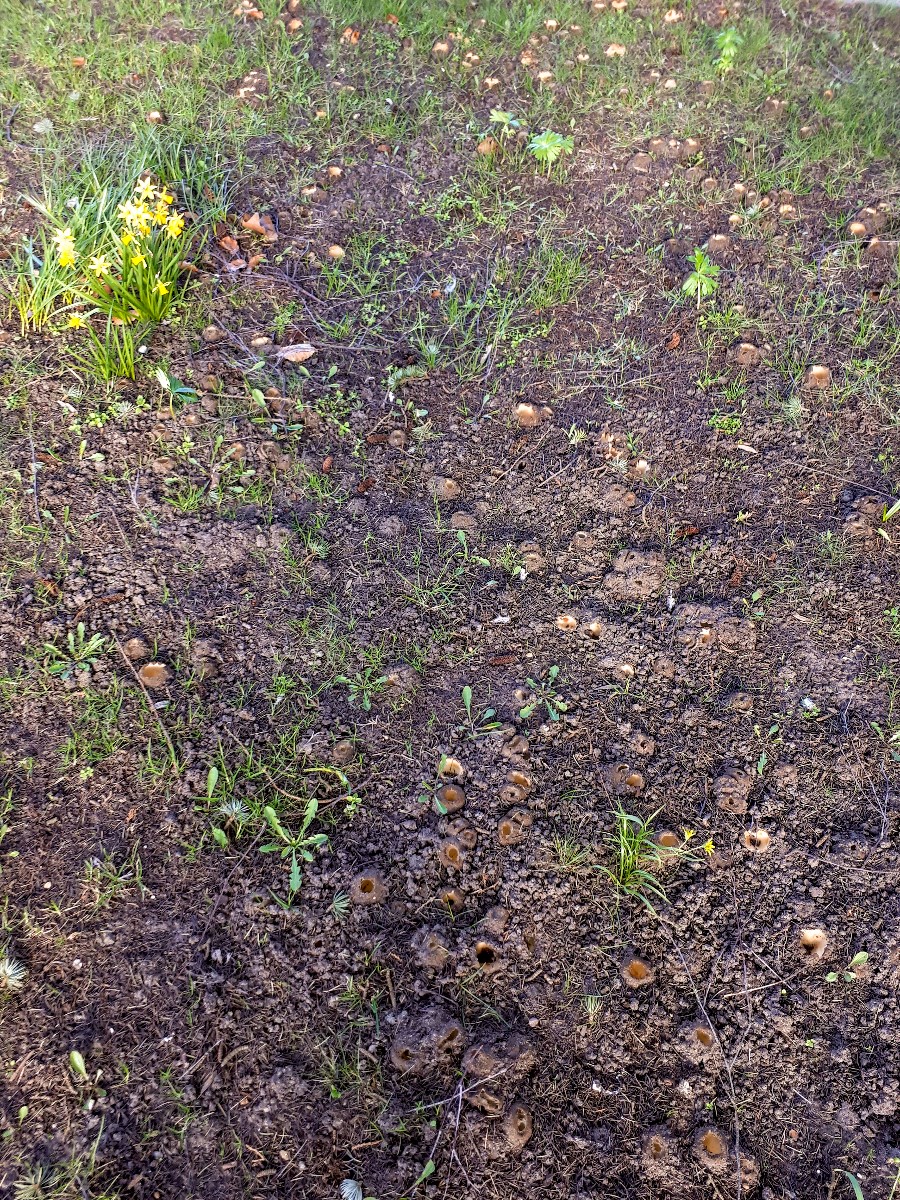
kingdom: Fungi
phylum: Ascomycota
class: Pezizomycetes
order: Pezizales
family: Pyronemataceae
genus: Geopora
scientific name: Geopora sumneriana
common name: vår-jordbæger
